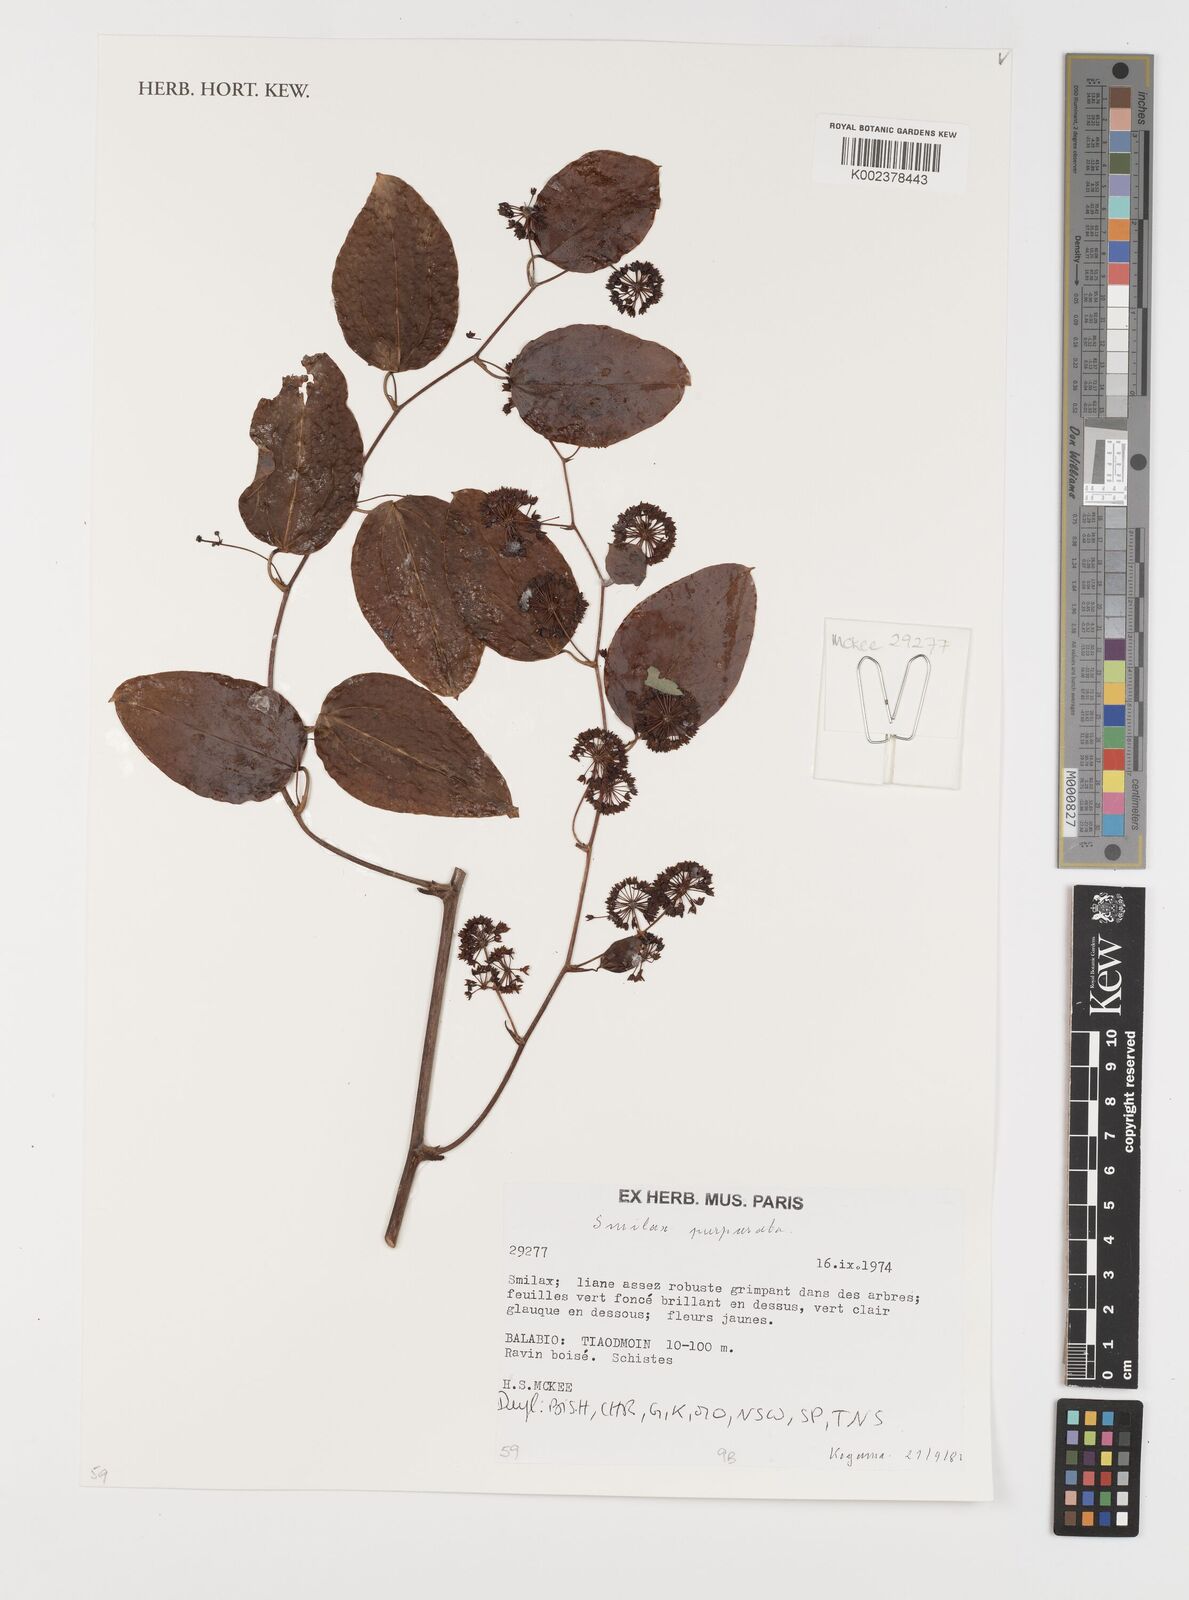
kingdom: Plantae
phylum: Tracheophyta
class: Liliopsida
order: Liliales
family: Smilacaceae
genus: Smilax
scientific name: Smilax purpurata
